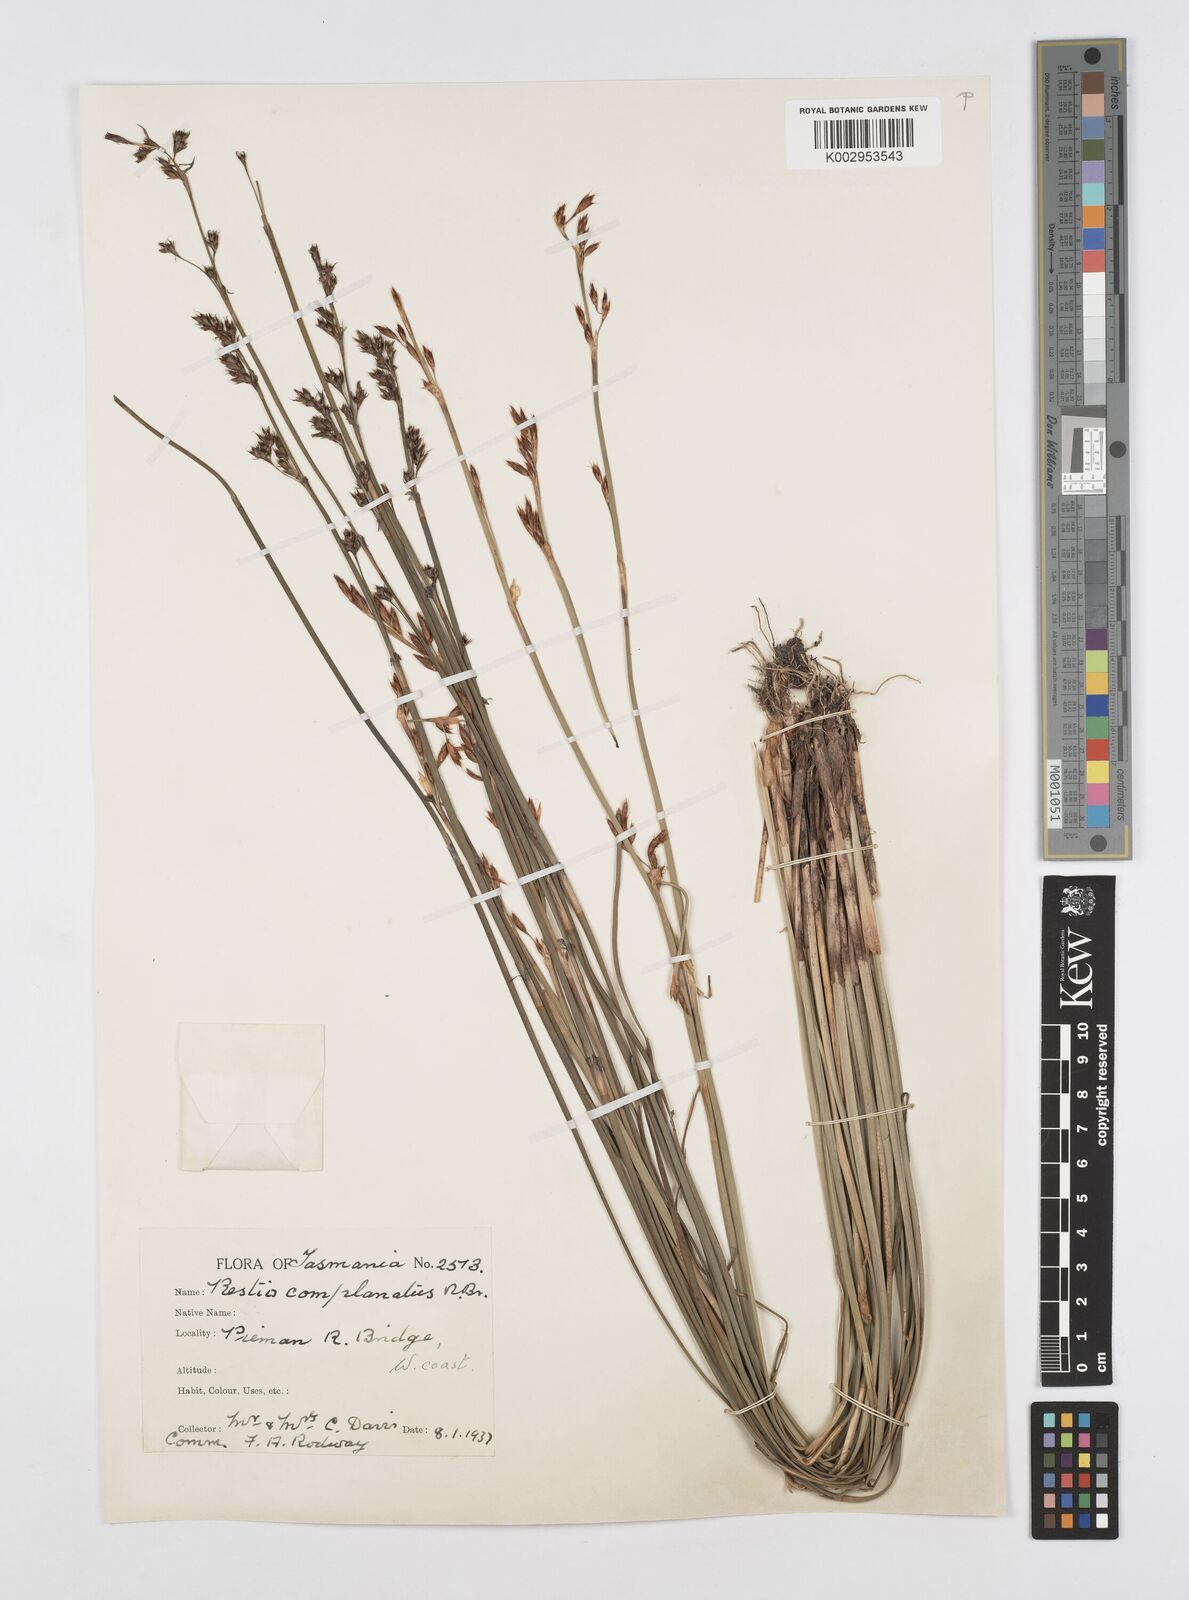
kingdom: Plantae
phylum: Tracheophyta
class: Liliopsida
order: Poales
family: Restionaceae
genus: Eurychorda
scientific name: Eurychorda complanata
